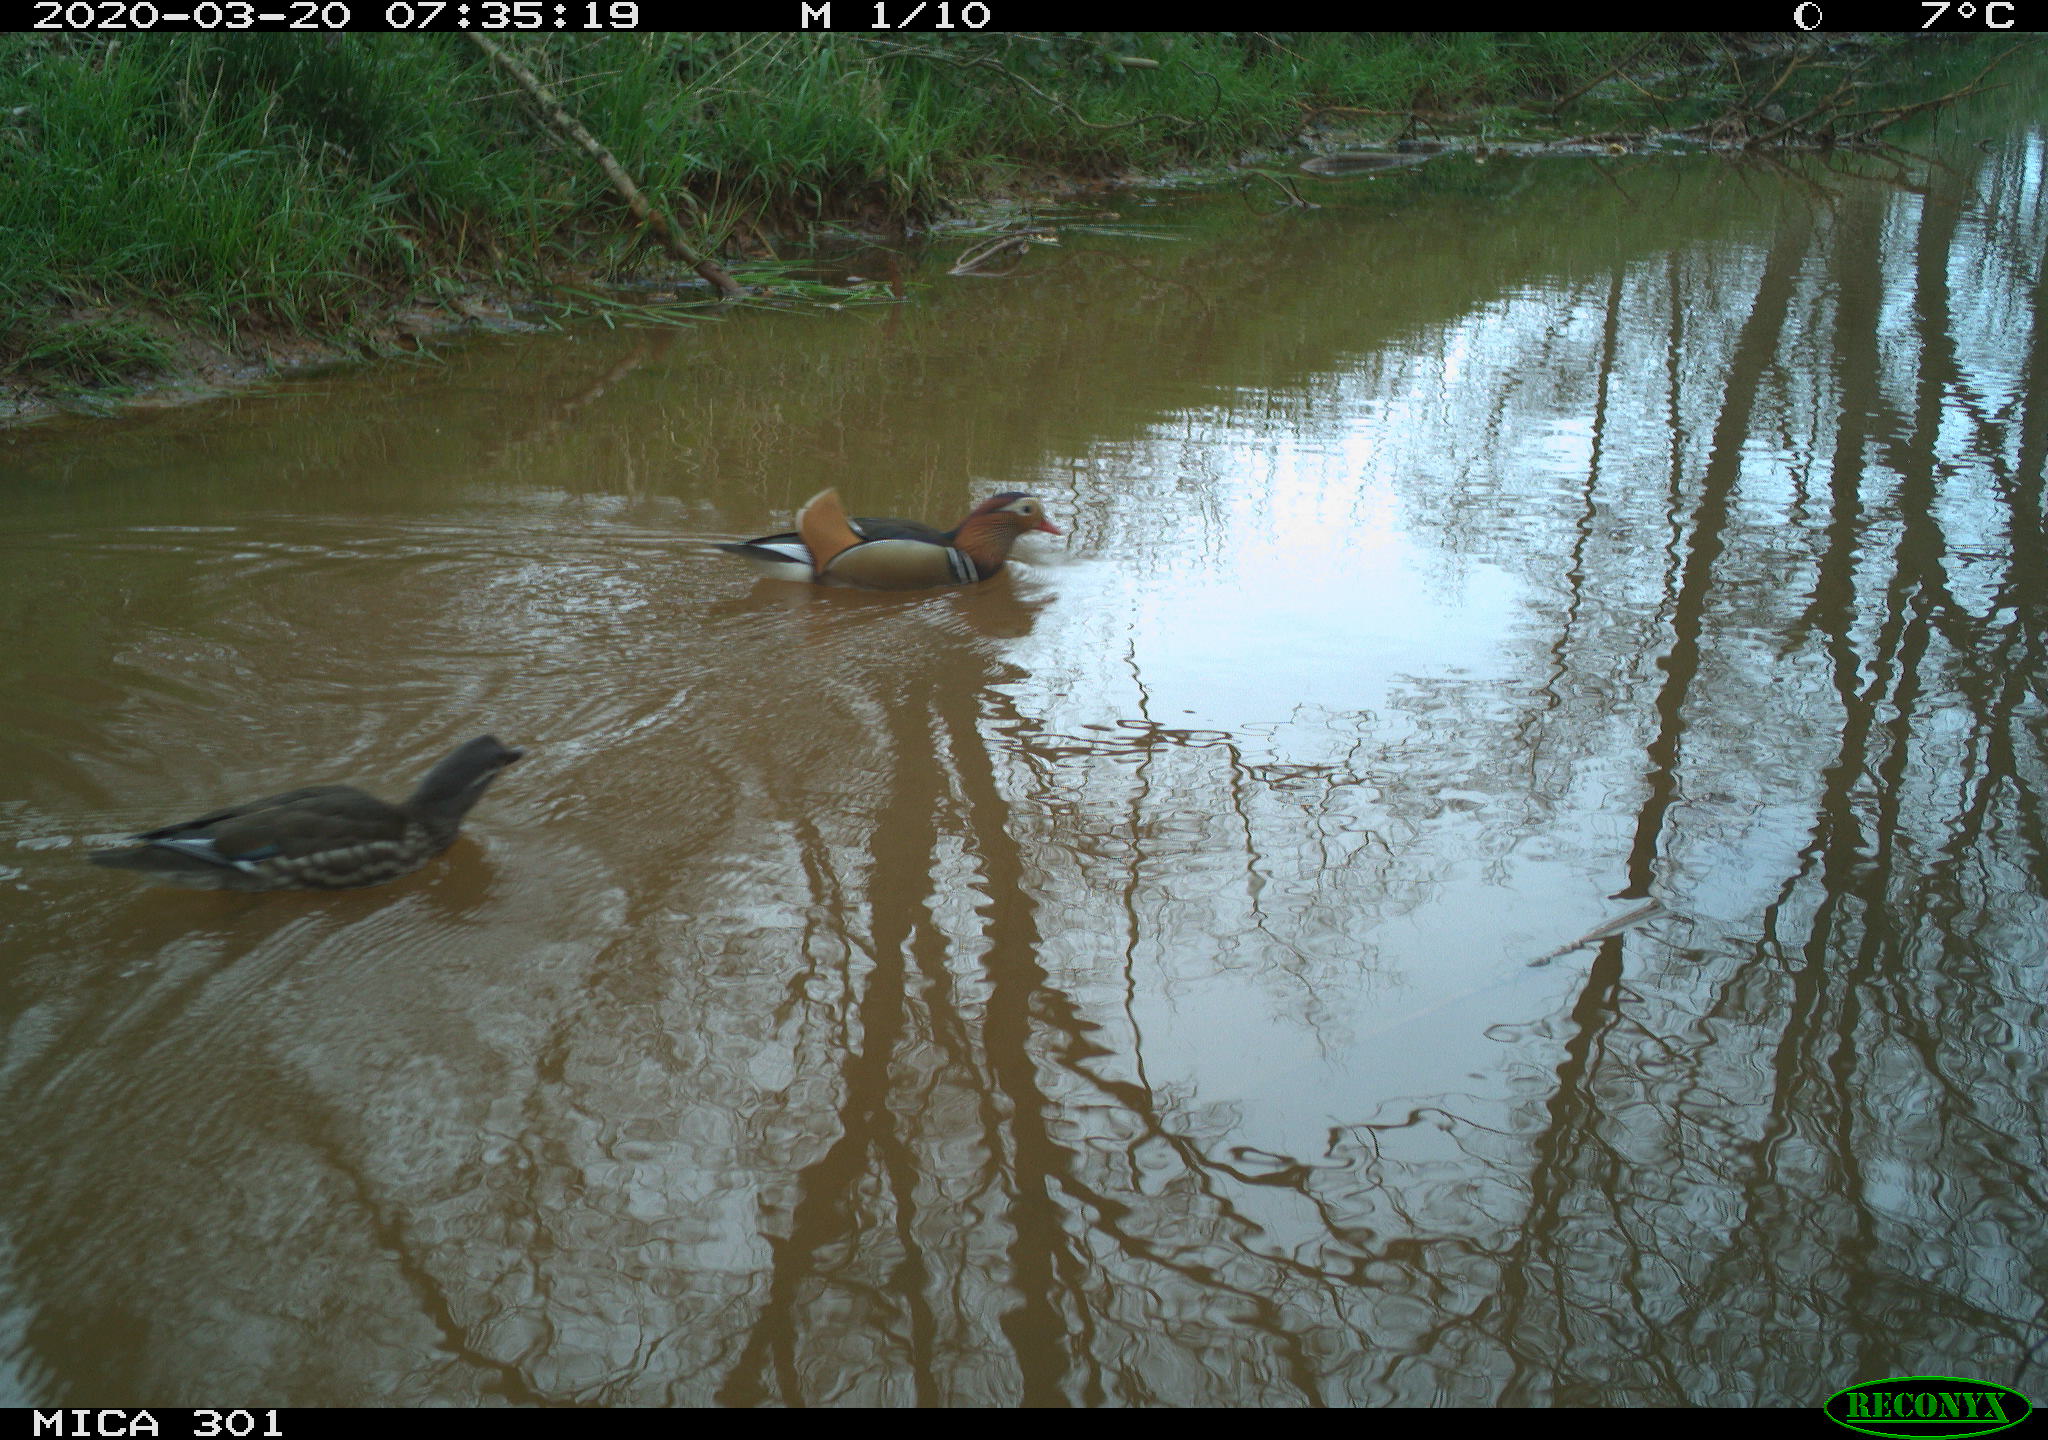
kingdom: Animalia
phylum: Chordata
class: Aves
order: Anseriformes
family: Anatidae
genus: Aix
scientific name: Aix galericulata
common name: Mandarin duck
